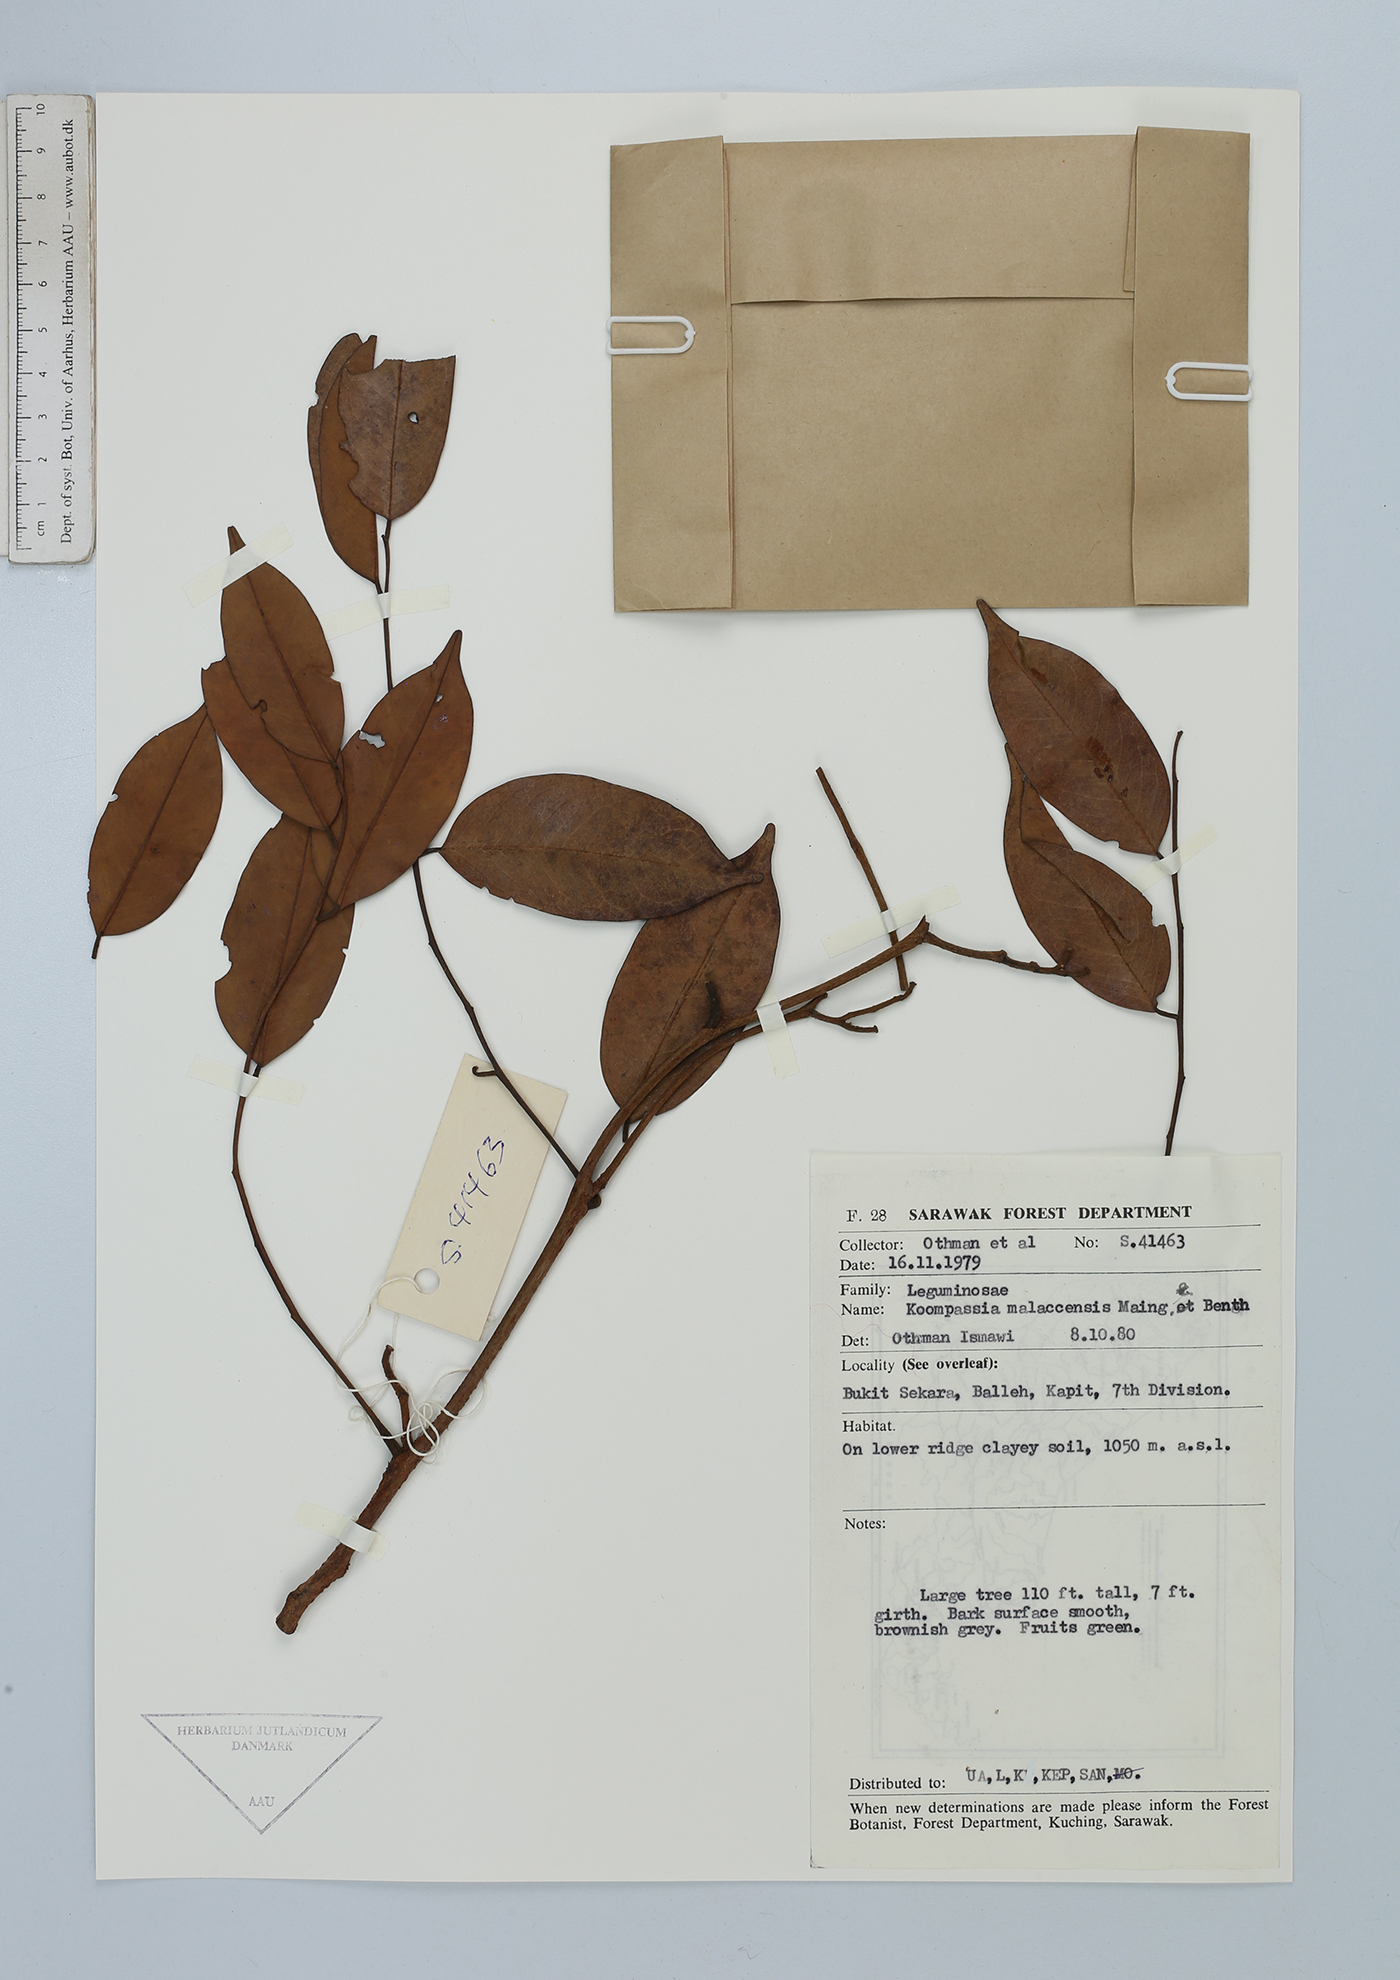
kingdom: Plantae
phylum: Tracheophyta
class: Magnoliopsida
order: Fabales
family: Fabaceae
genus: Koompassia
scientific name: Koompassia malaccensis
